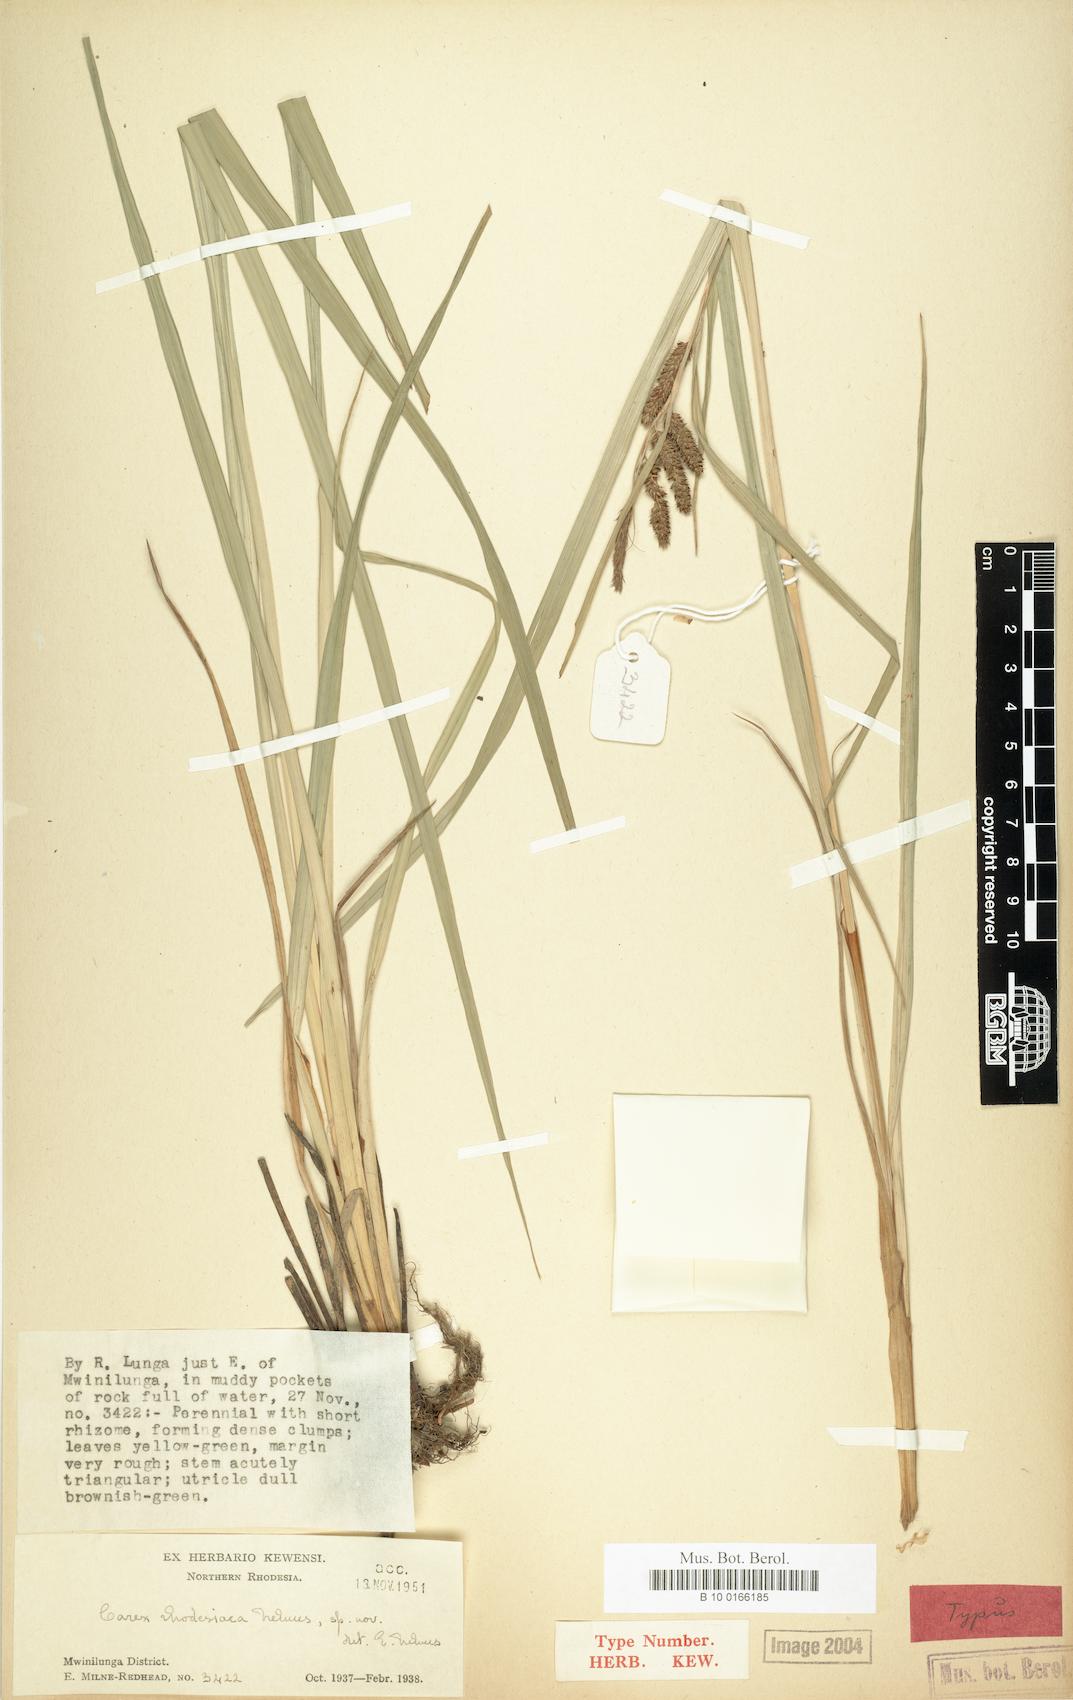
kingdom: Plantae
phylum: Tracheophyta
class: Liliopsida
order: Poales
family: Cyperaceae
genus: Carex
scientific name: Carex rhodesiaca
